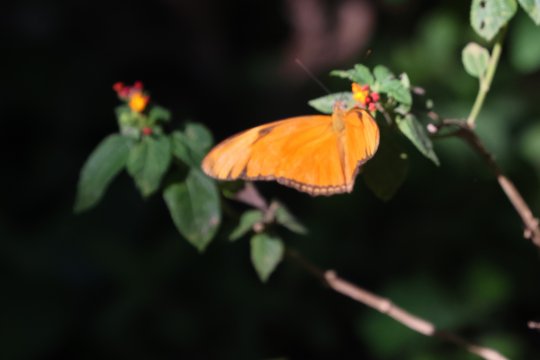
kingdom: Animalia
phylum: Arthropoda
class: Insecta
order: Lepidoptera
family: Nymphalidae
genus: Dryas
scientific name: Dryas iulia
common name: Julia
